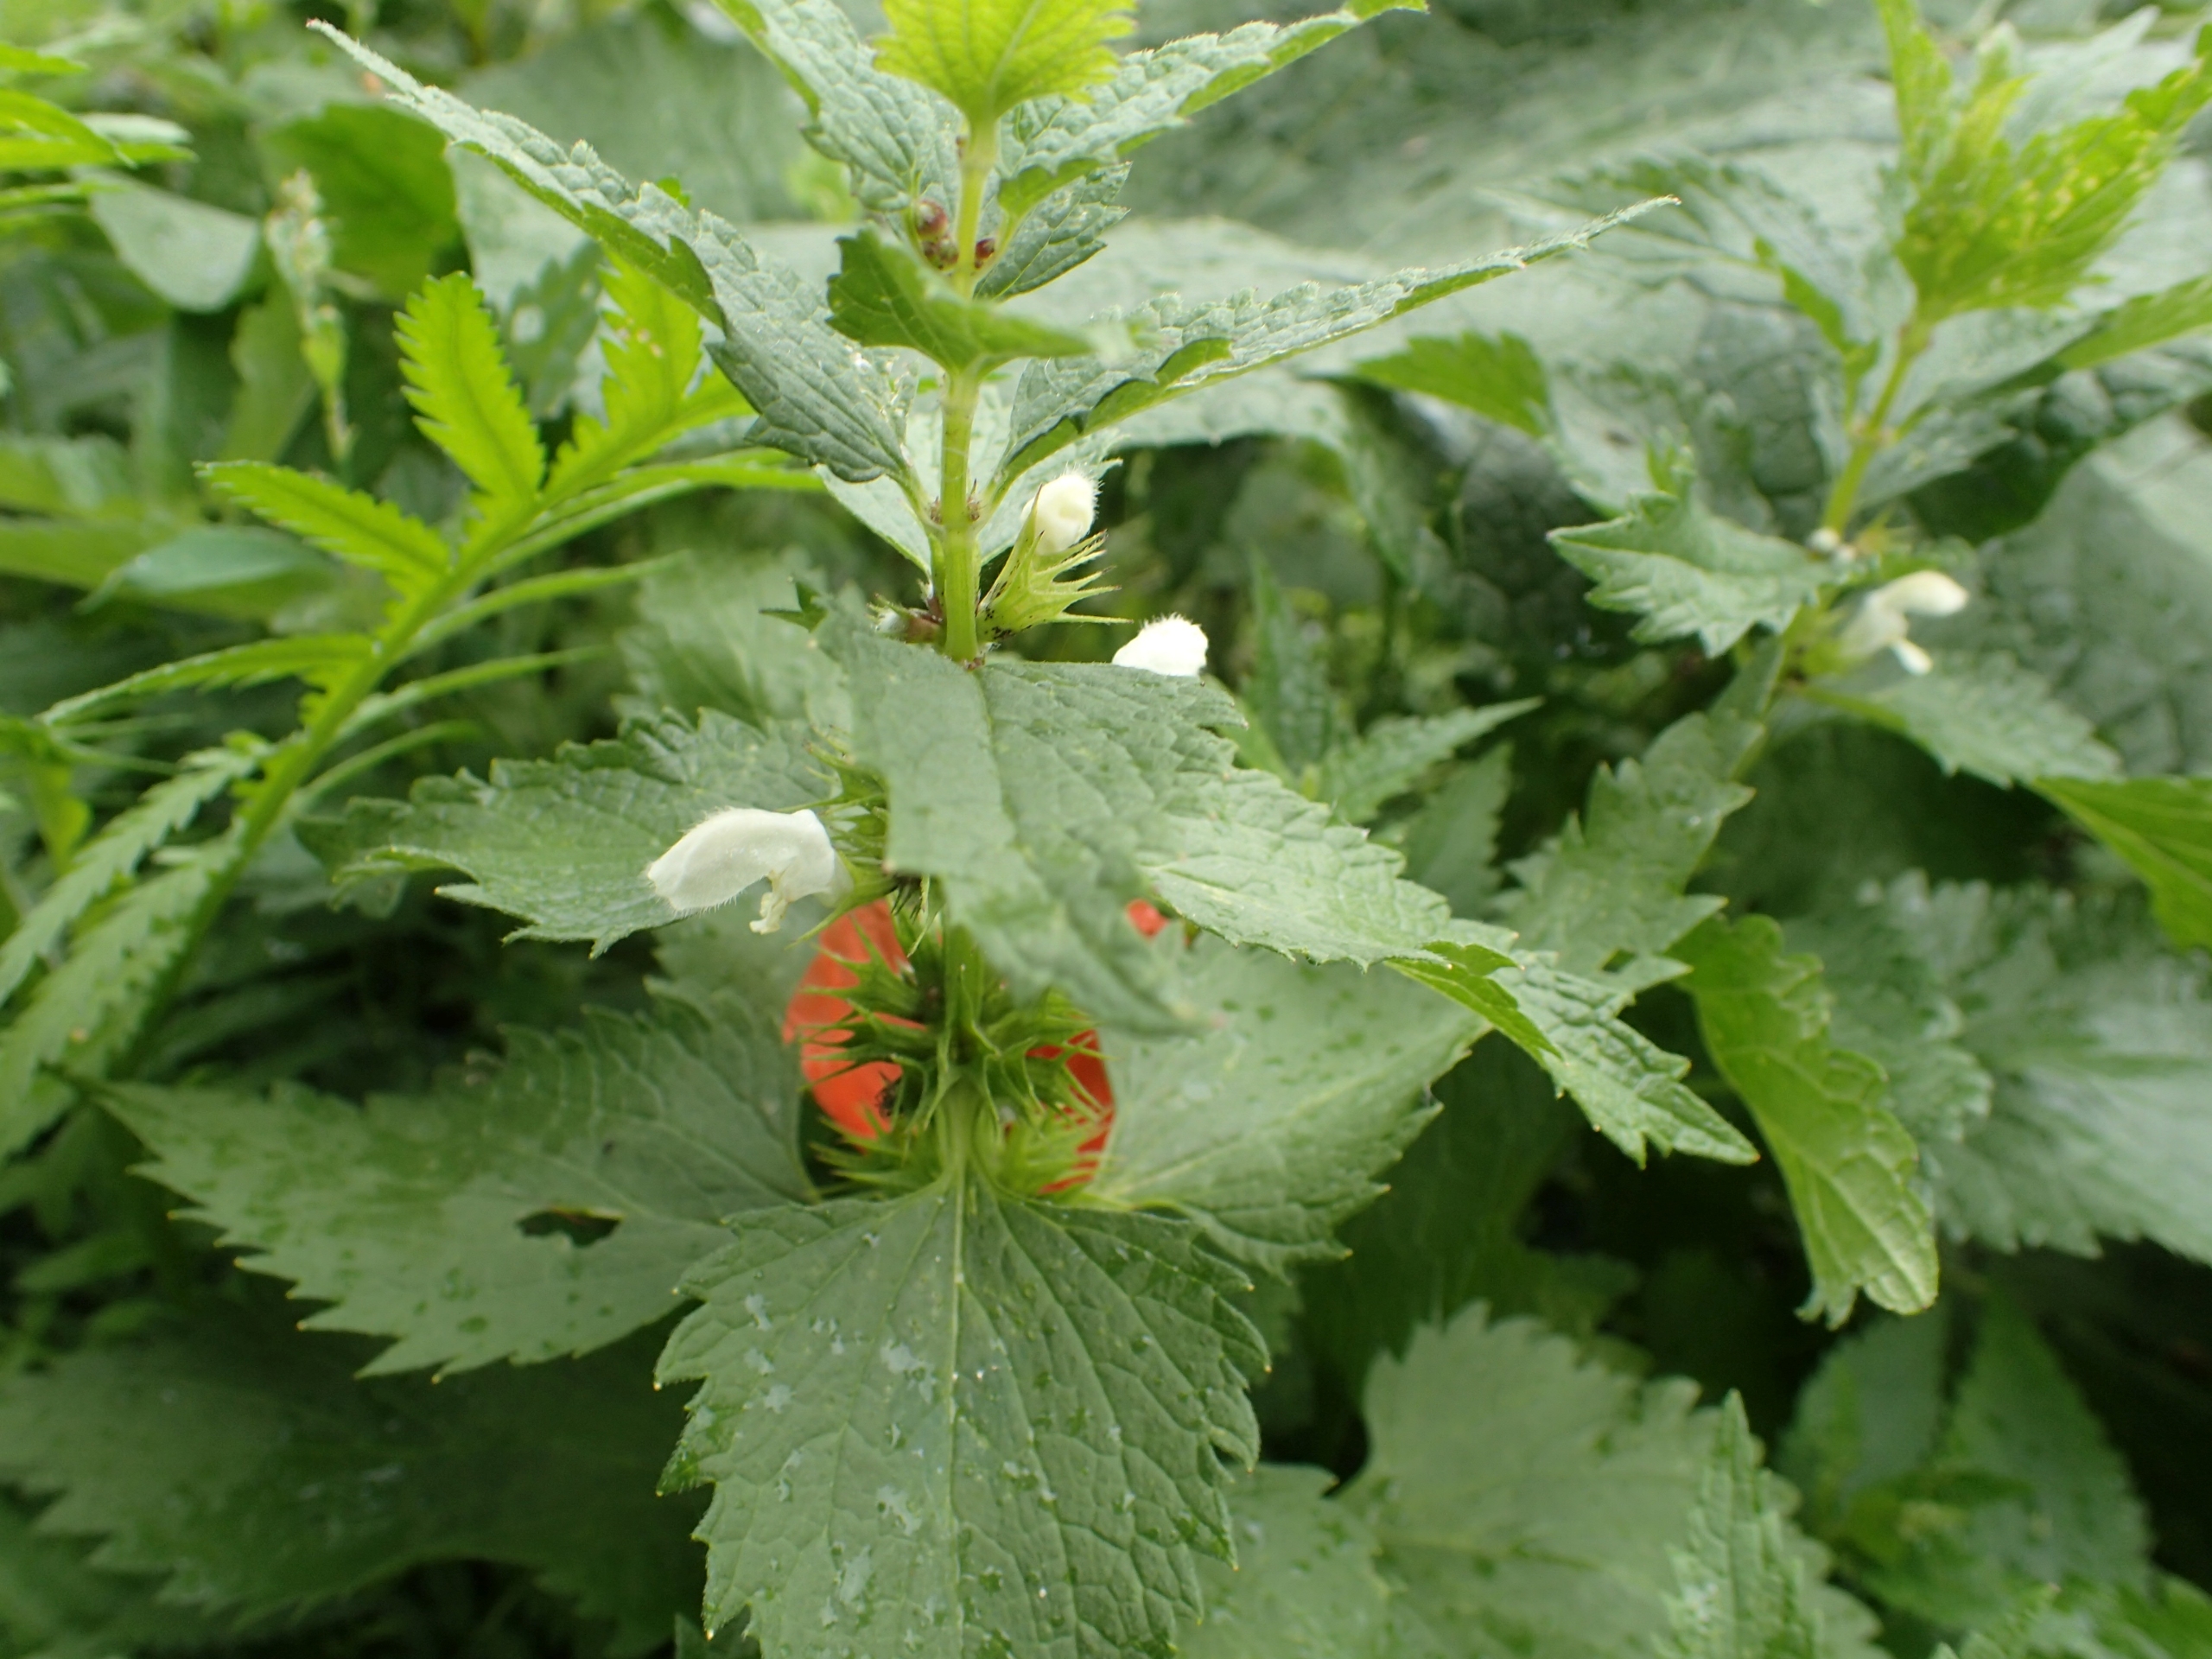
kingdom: Plantae
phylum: Tracheophyta
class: Magnoliopsida
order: Lamiales
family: Lamiaceae
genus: Lamium
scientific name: Lamium album
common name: Døvnælde
